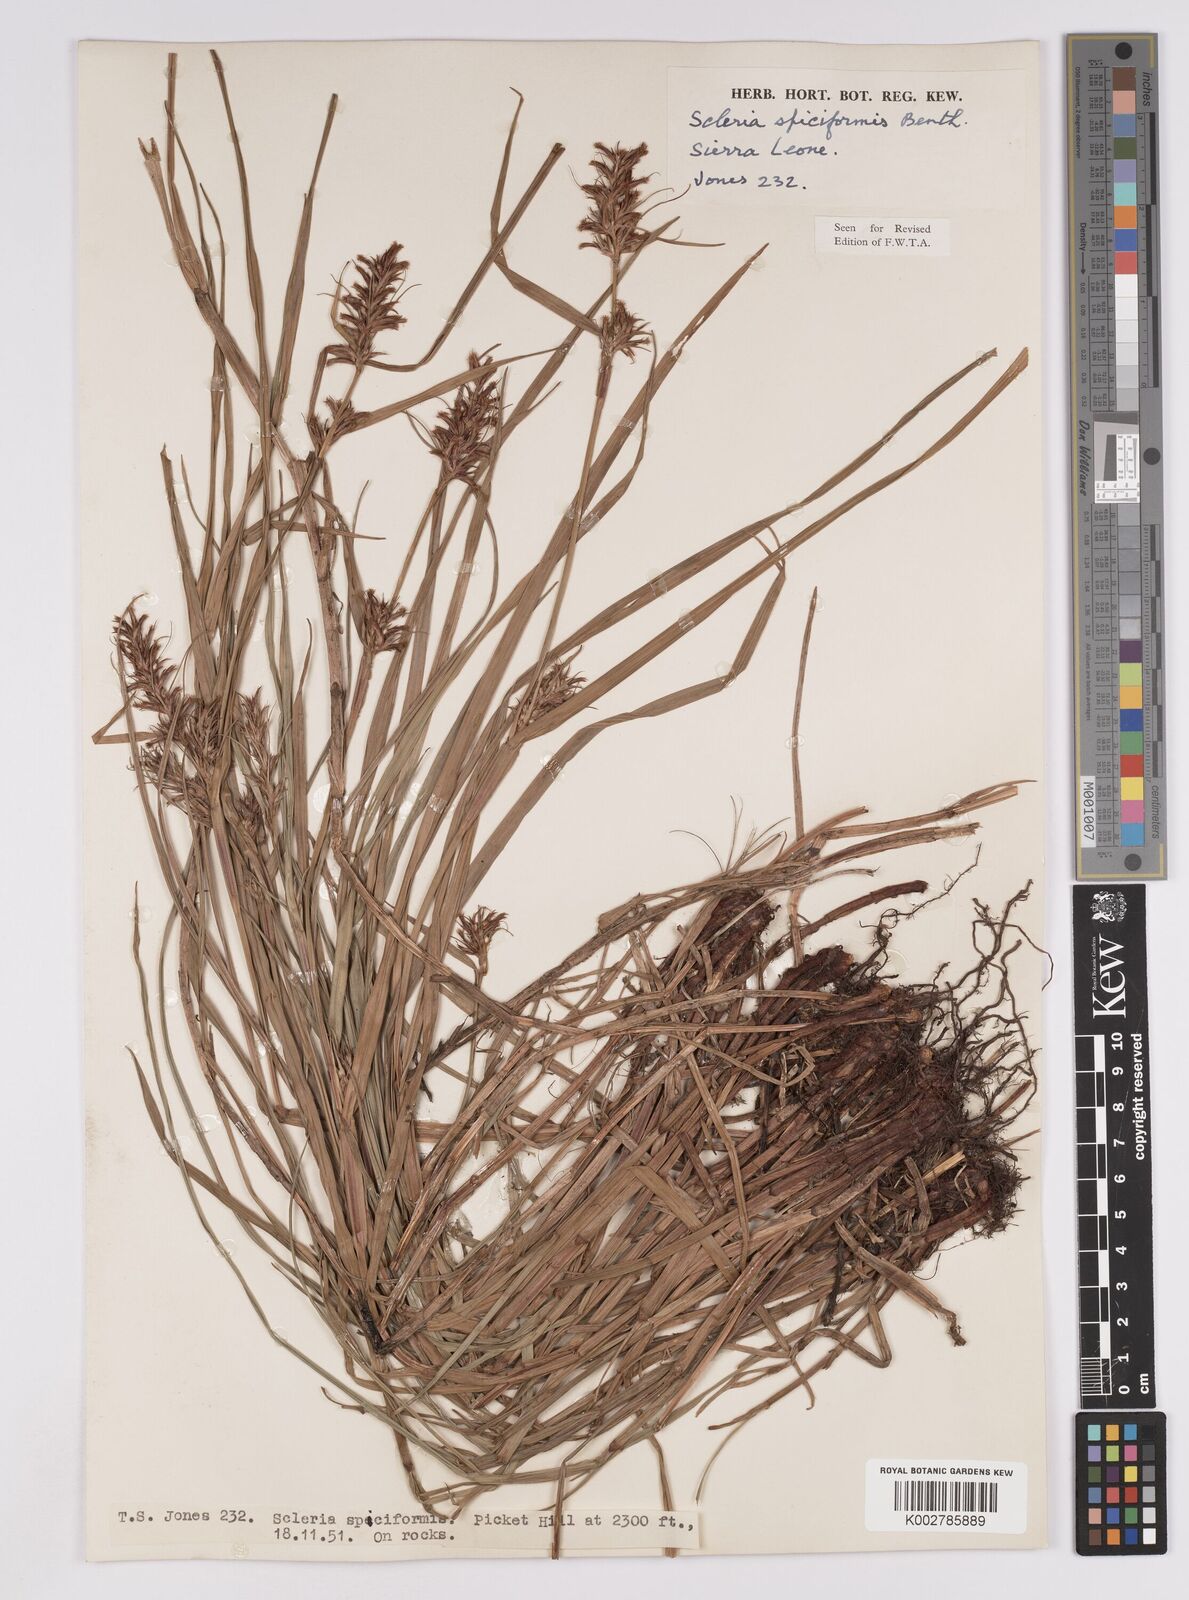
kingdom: Plantae
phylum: Tracheophyta
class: Liliopsida
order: Poales
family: Cyperaceae
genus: Scleria
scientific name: Scleria spiciformis
